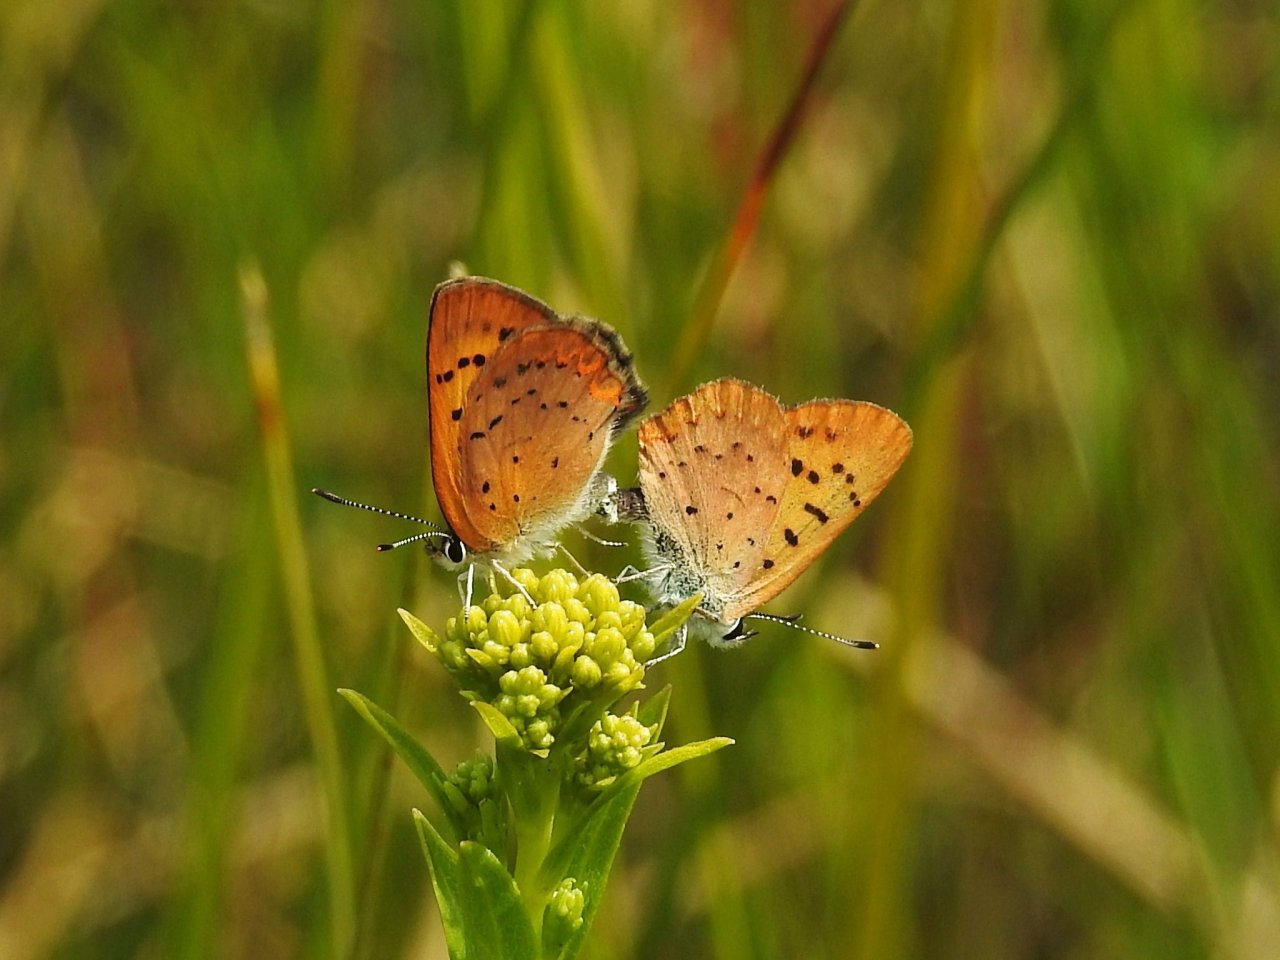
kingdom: Animalia
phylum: Arthropoda
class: Insecta
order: Lepidoptera
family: Lycaenidae
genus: Epidemia
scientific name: Epidemia dorcas
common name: Dorcas Copper
